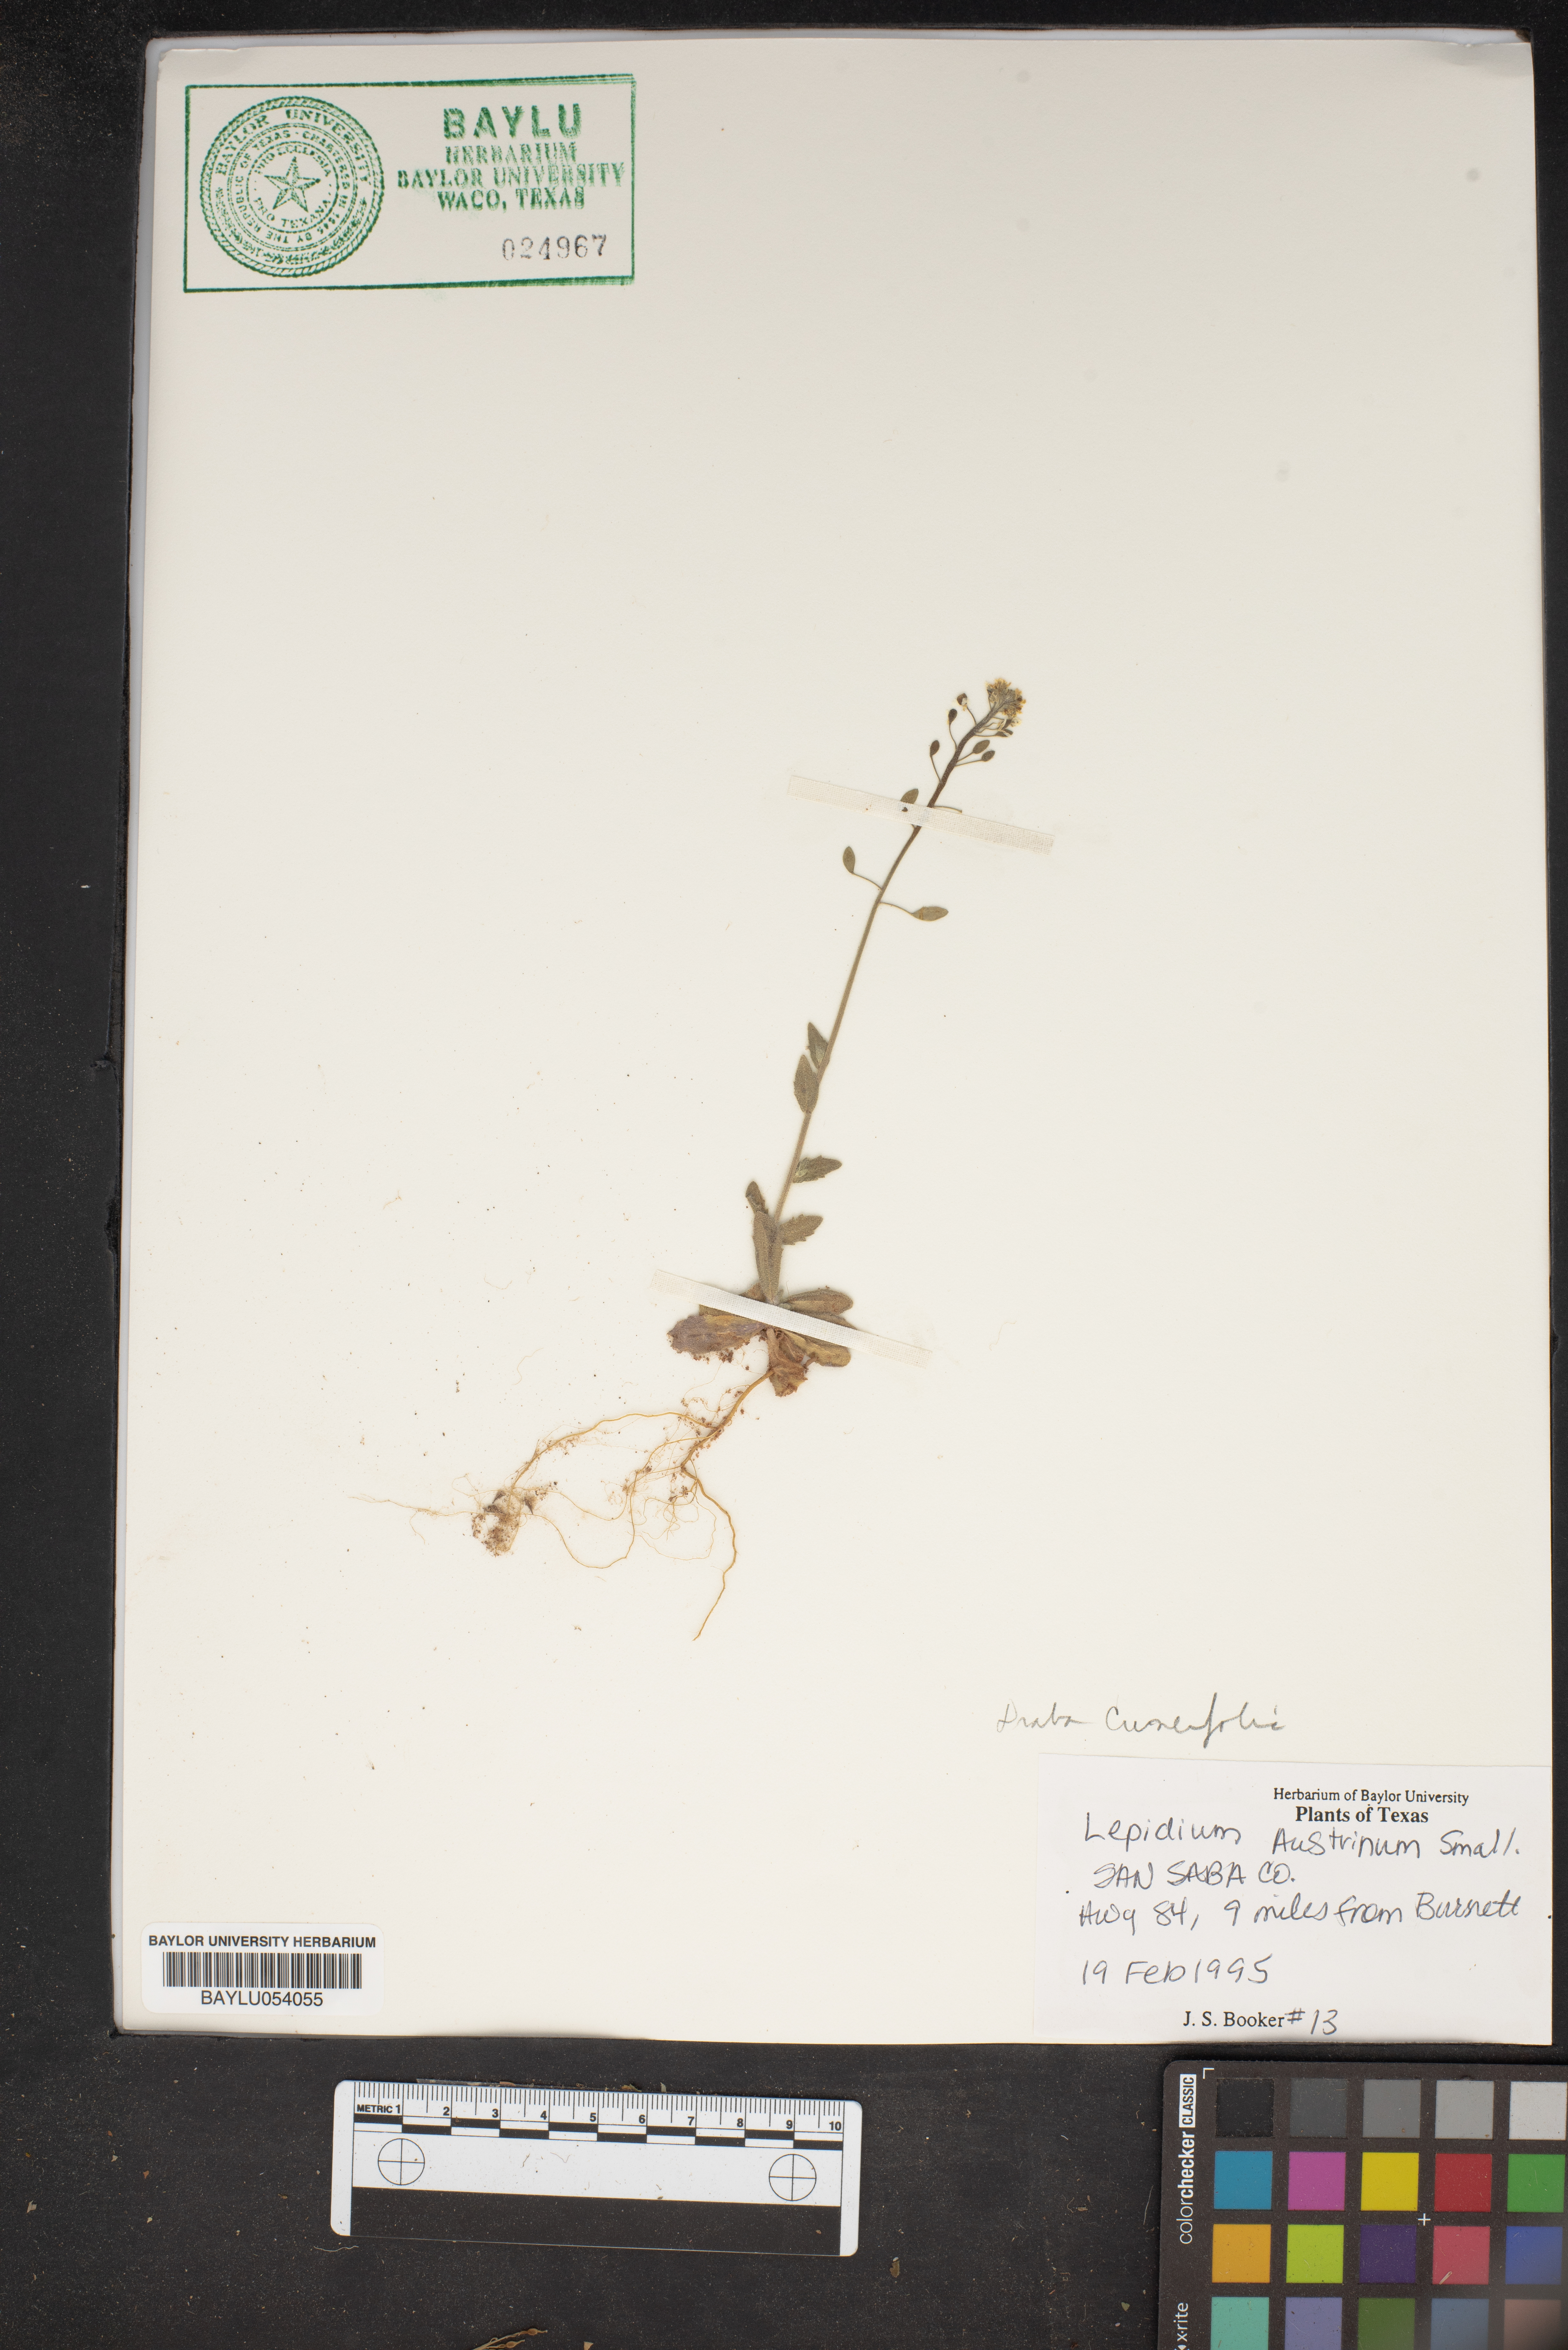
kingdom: Plantae
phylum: Tracheophyta
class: Magnoliopsida
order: Brassicales
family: Brassicaceae
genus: Lepidium
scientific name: Lepidium austrinum
